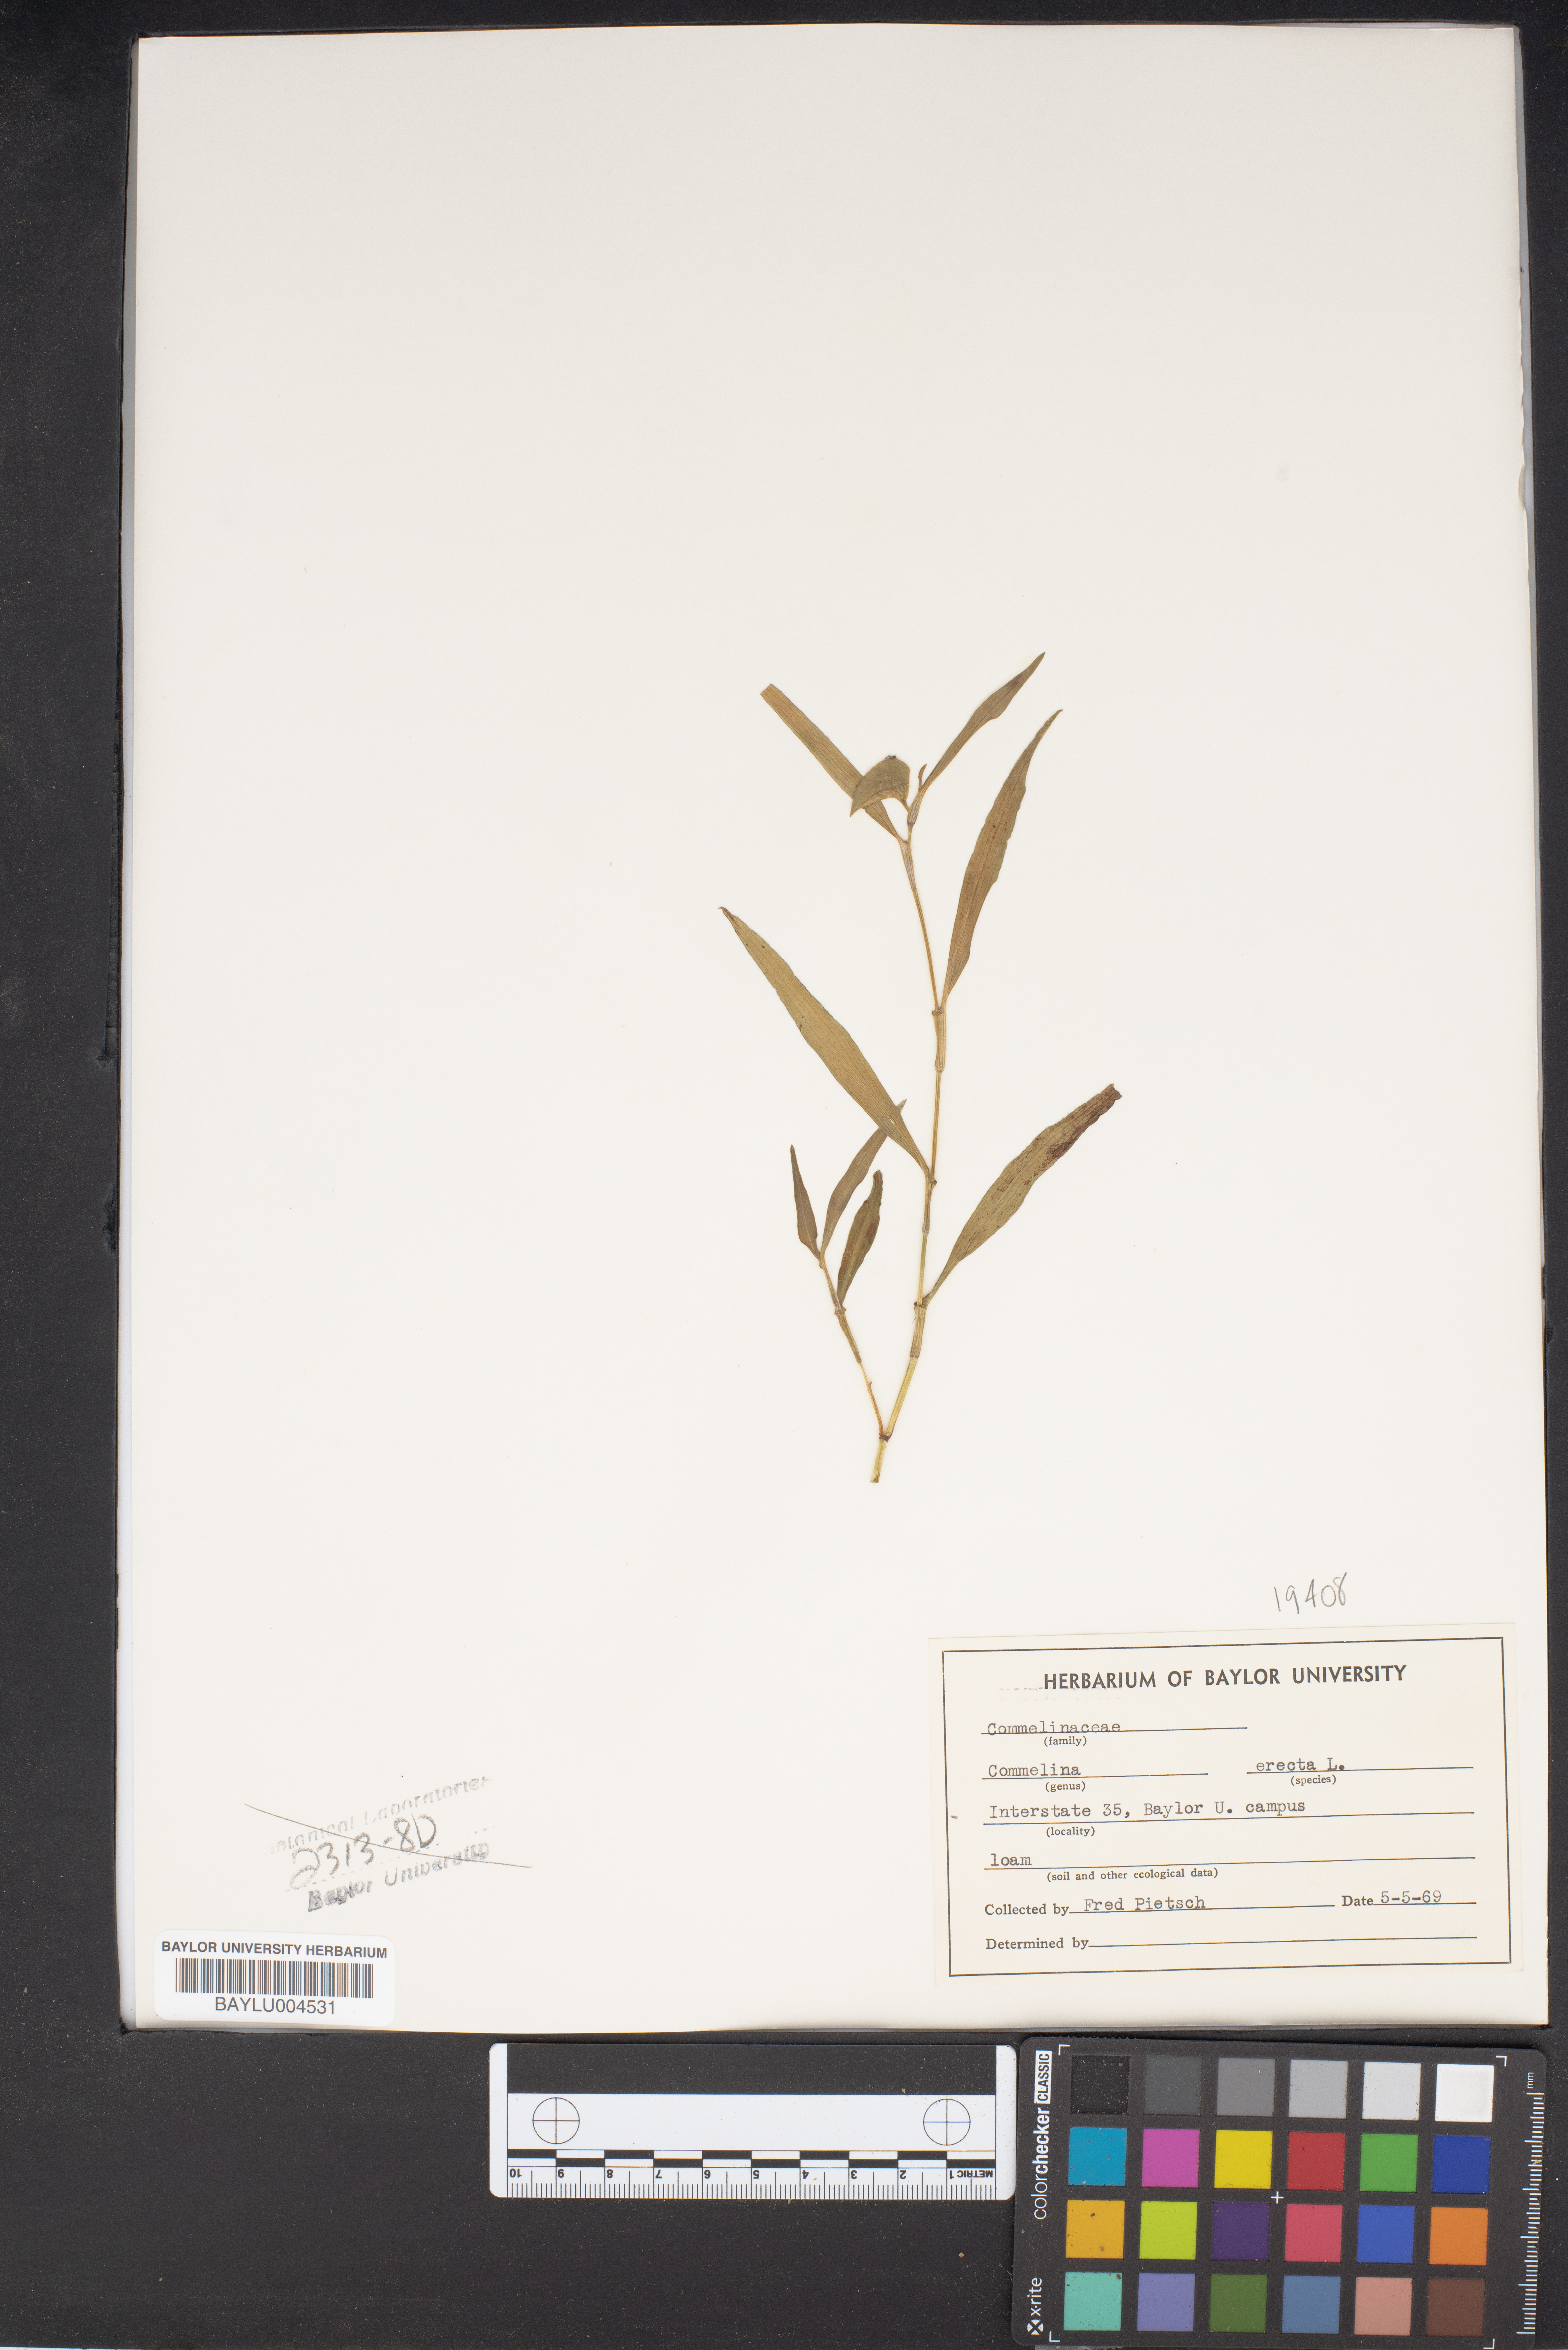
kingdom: Plantae
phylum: Tracheophyta
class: Liliopsida
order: Commelinales
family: Commelinaceae
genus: Commelina
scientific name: Commelina erecta
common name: Blousel blommetjie
